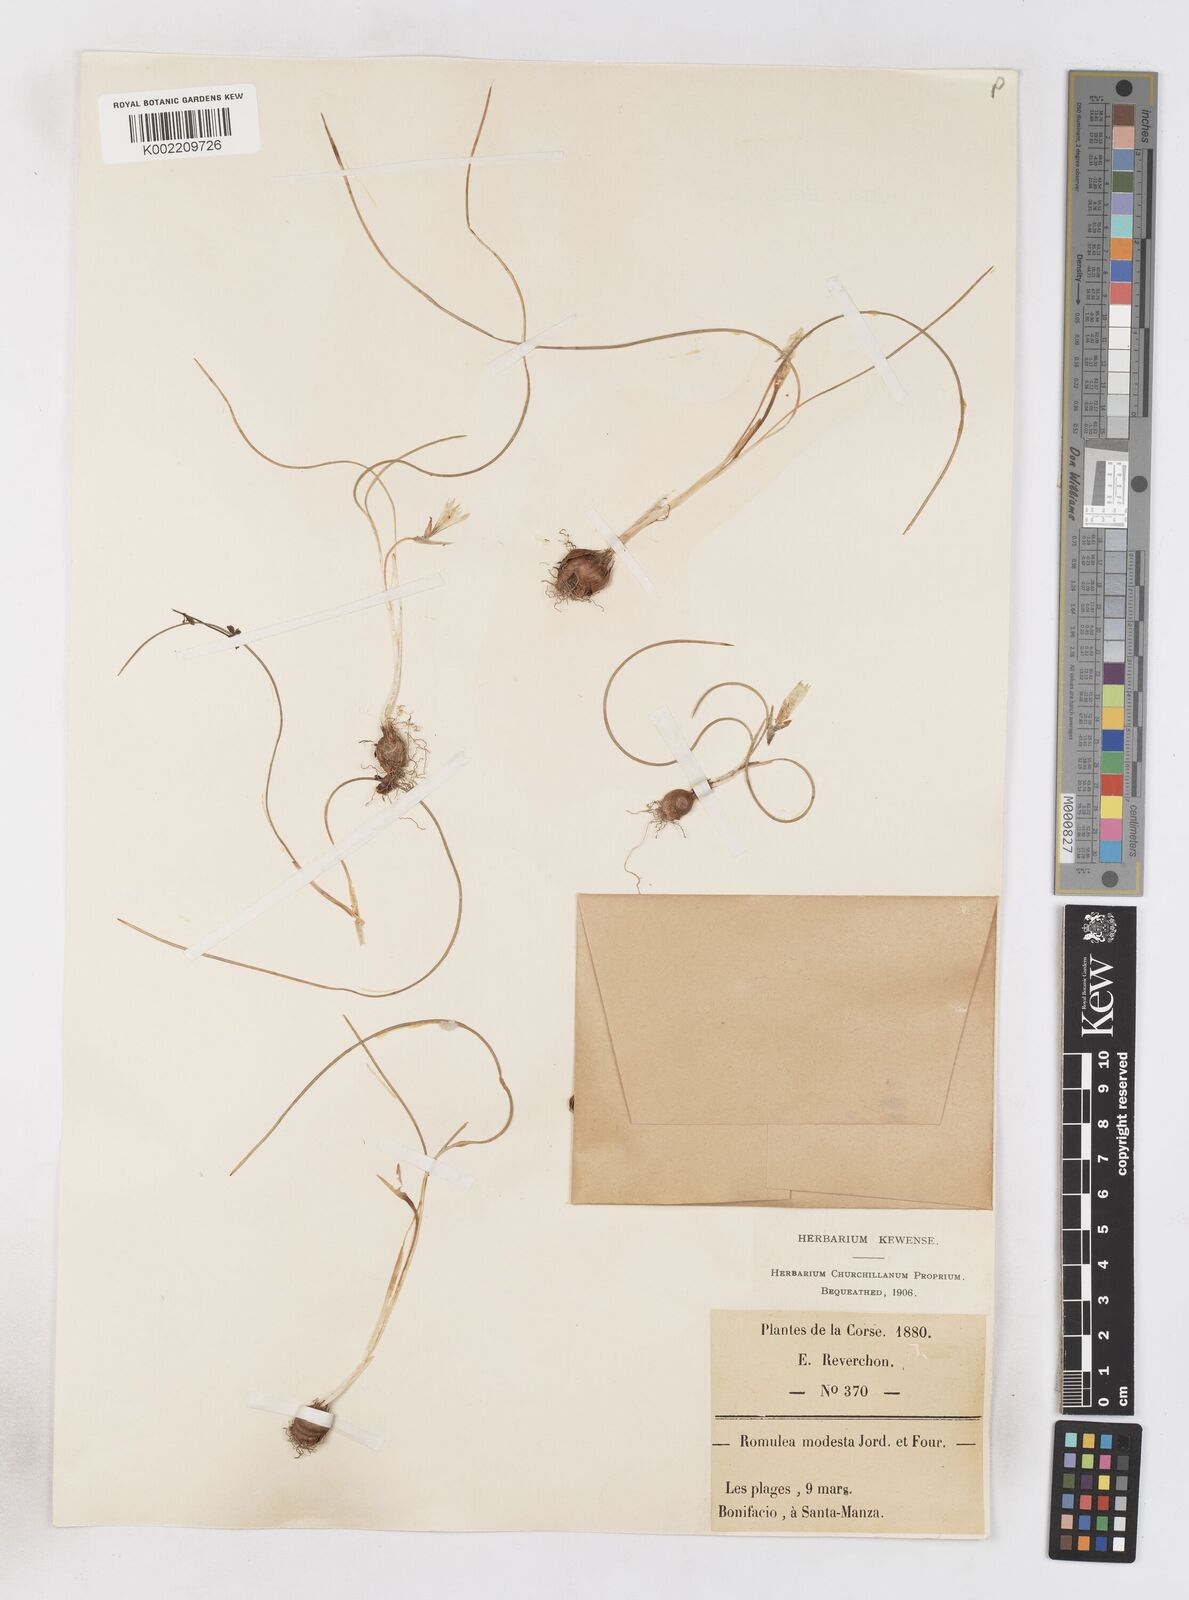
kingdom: Plantae
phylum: Tracheophyta
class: Liliopsida
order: Asparagales
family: Iridaceae
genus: Romulea
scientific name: Romulea columnae
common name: Sand-crocus
